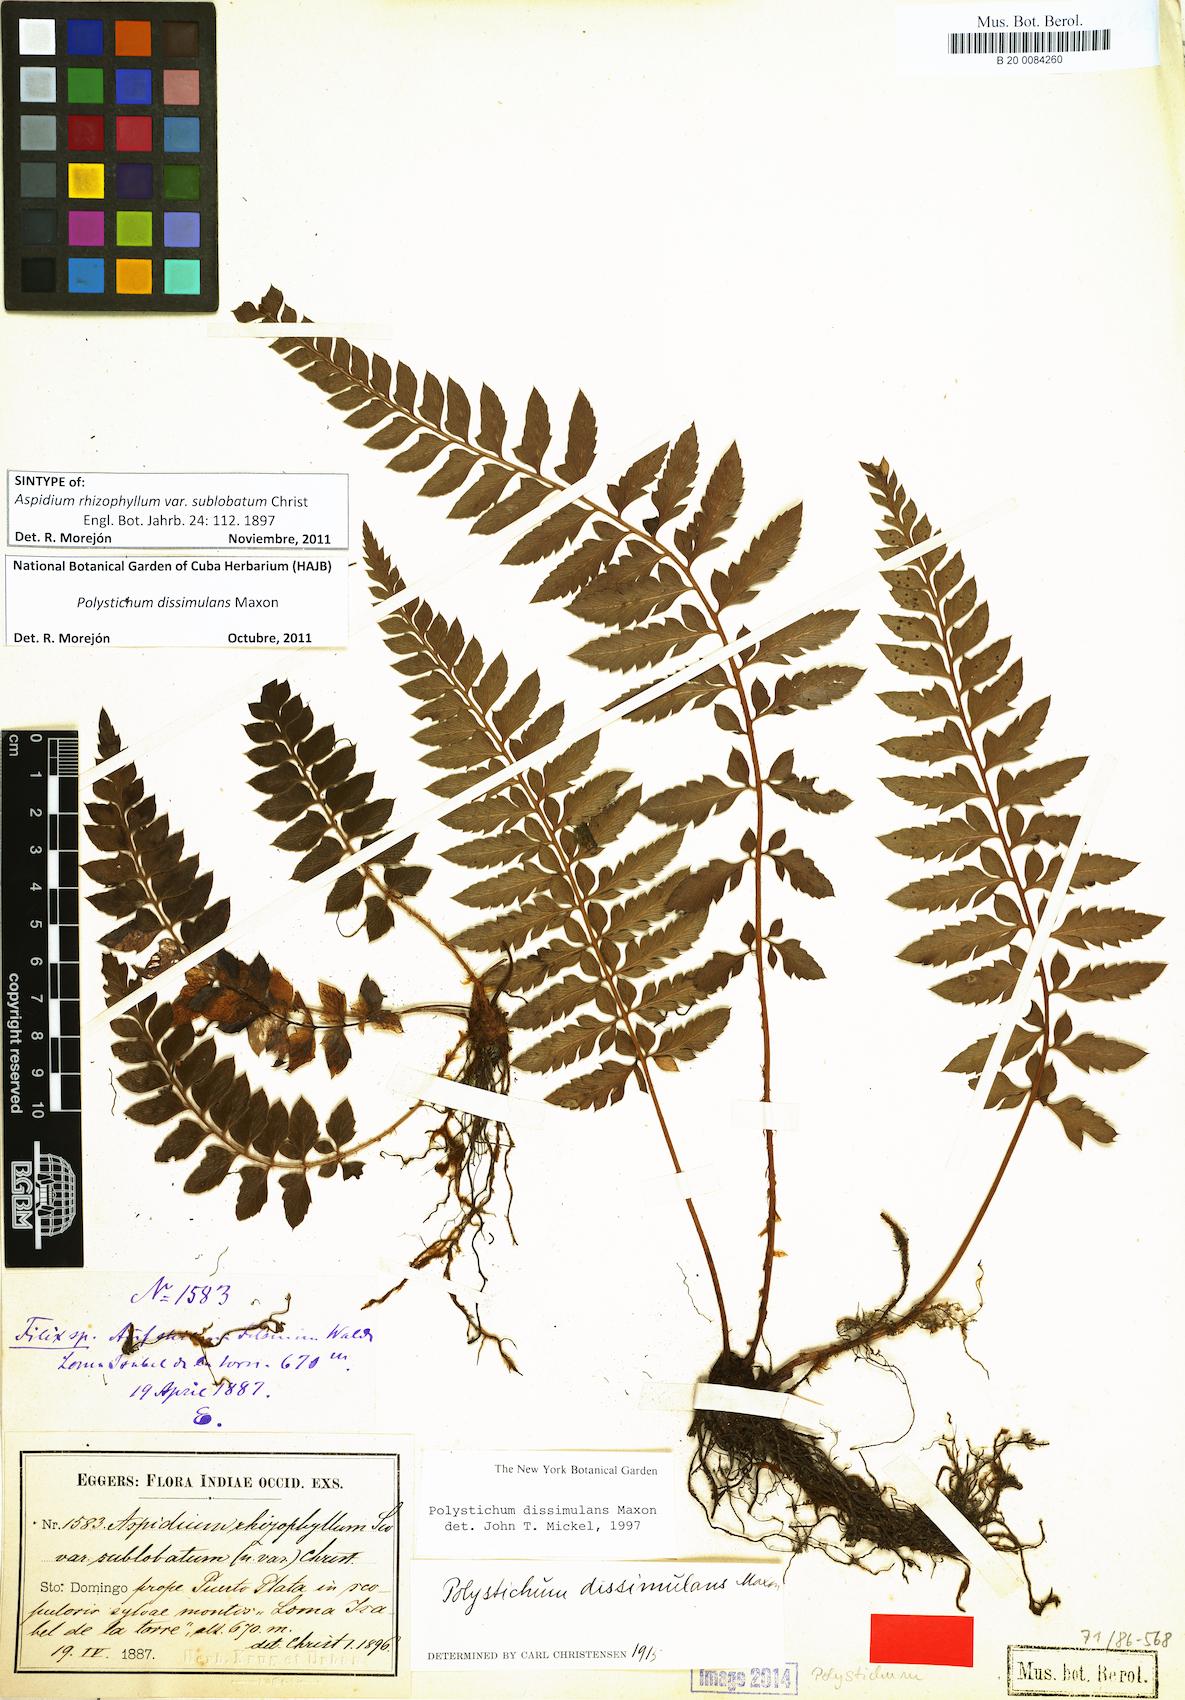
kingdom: Plantae
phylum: Tracheophyta
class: Polypodiopsida
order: Polypodiales
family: Dryopteridaceae
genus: Polystichum
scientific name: Polystichum dissimulans
